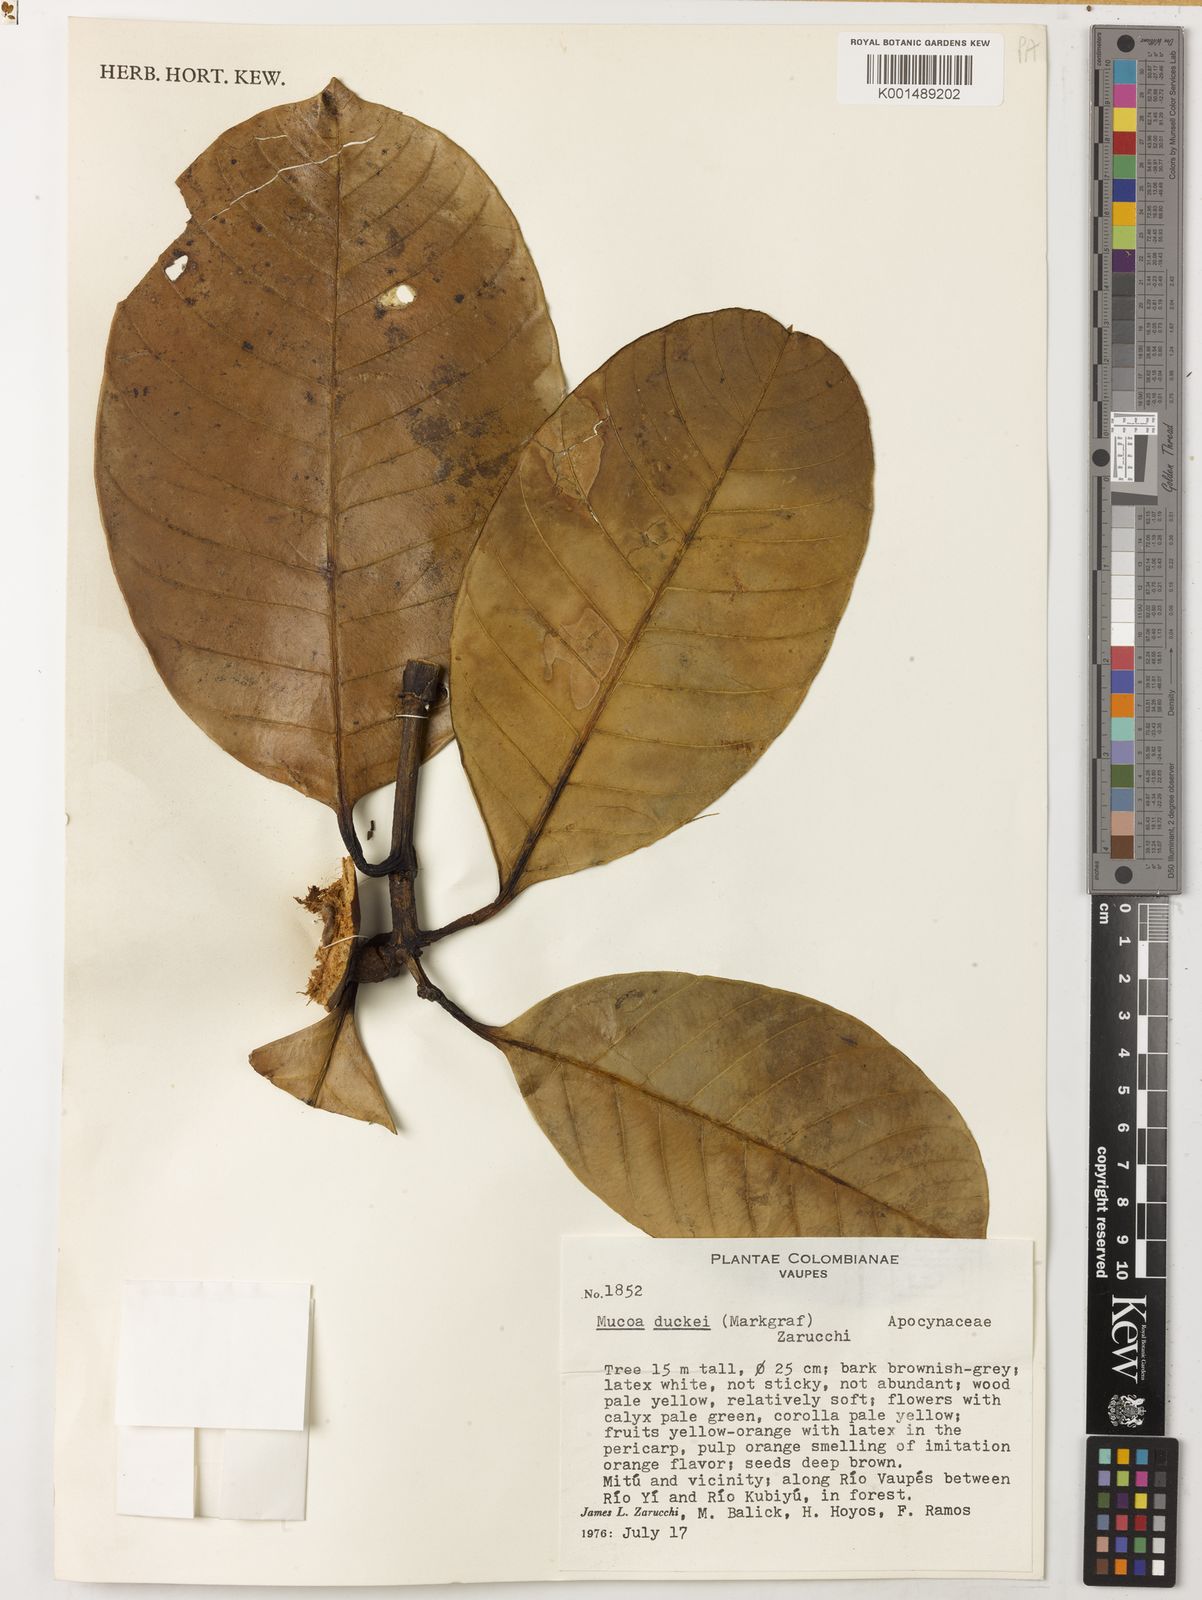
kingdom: Plantae
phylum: Tracheophyta
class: Magnoliopsida
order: Gentianales
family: Apocynaceae
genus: Mucoa
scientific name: Mucoa duckei
